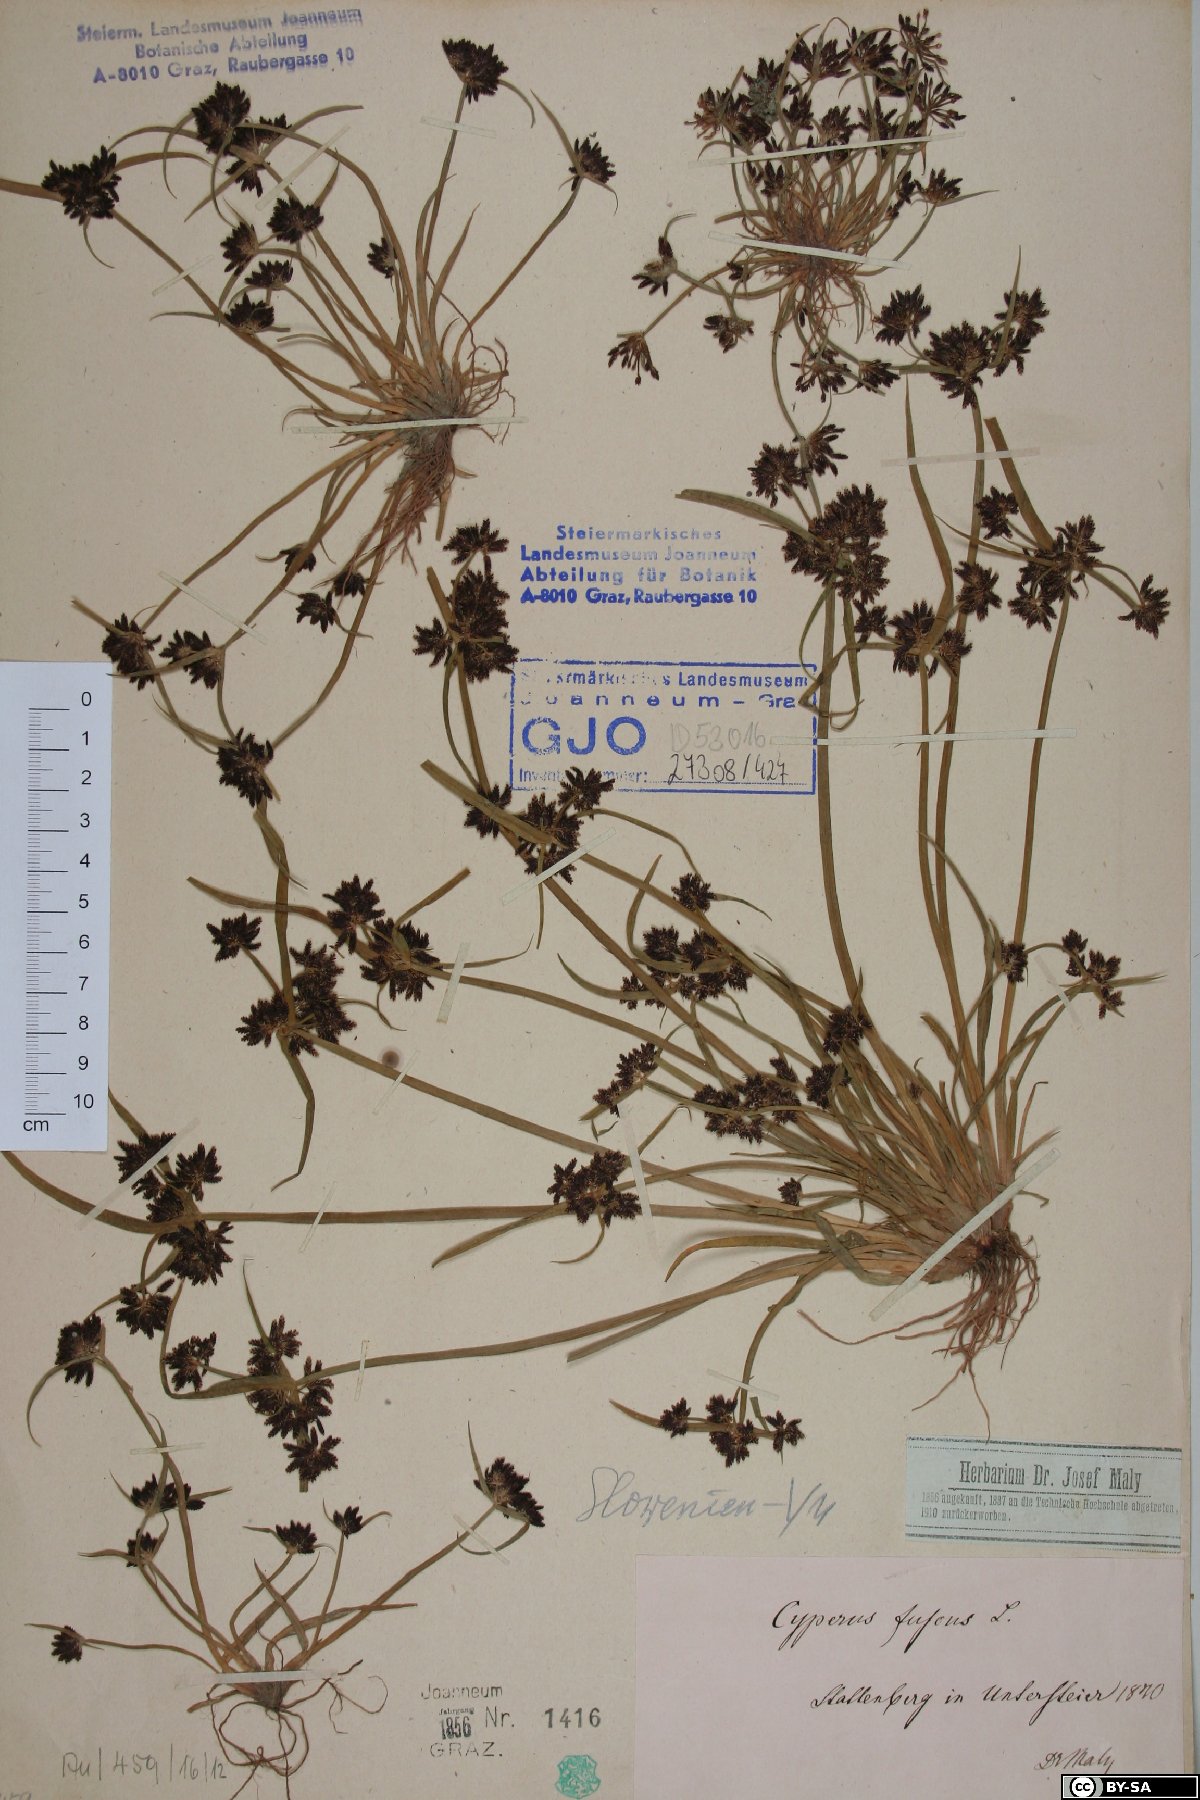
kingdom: Plantae
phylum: Tracheophyta
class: Liliopsida
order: Poales
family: Cyperaceae
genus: Cyperus
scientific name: Cyperus fuscus
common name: Brown galingale
